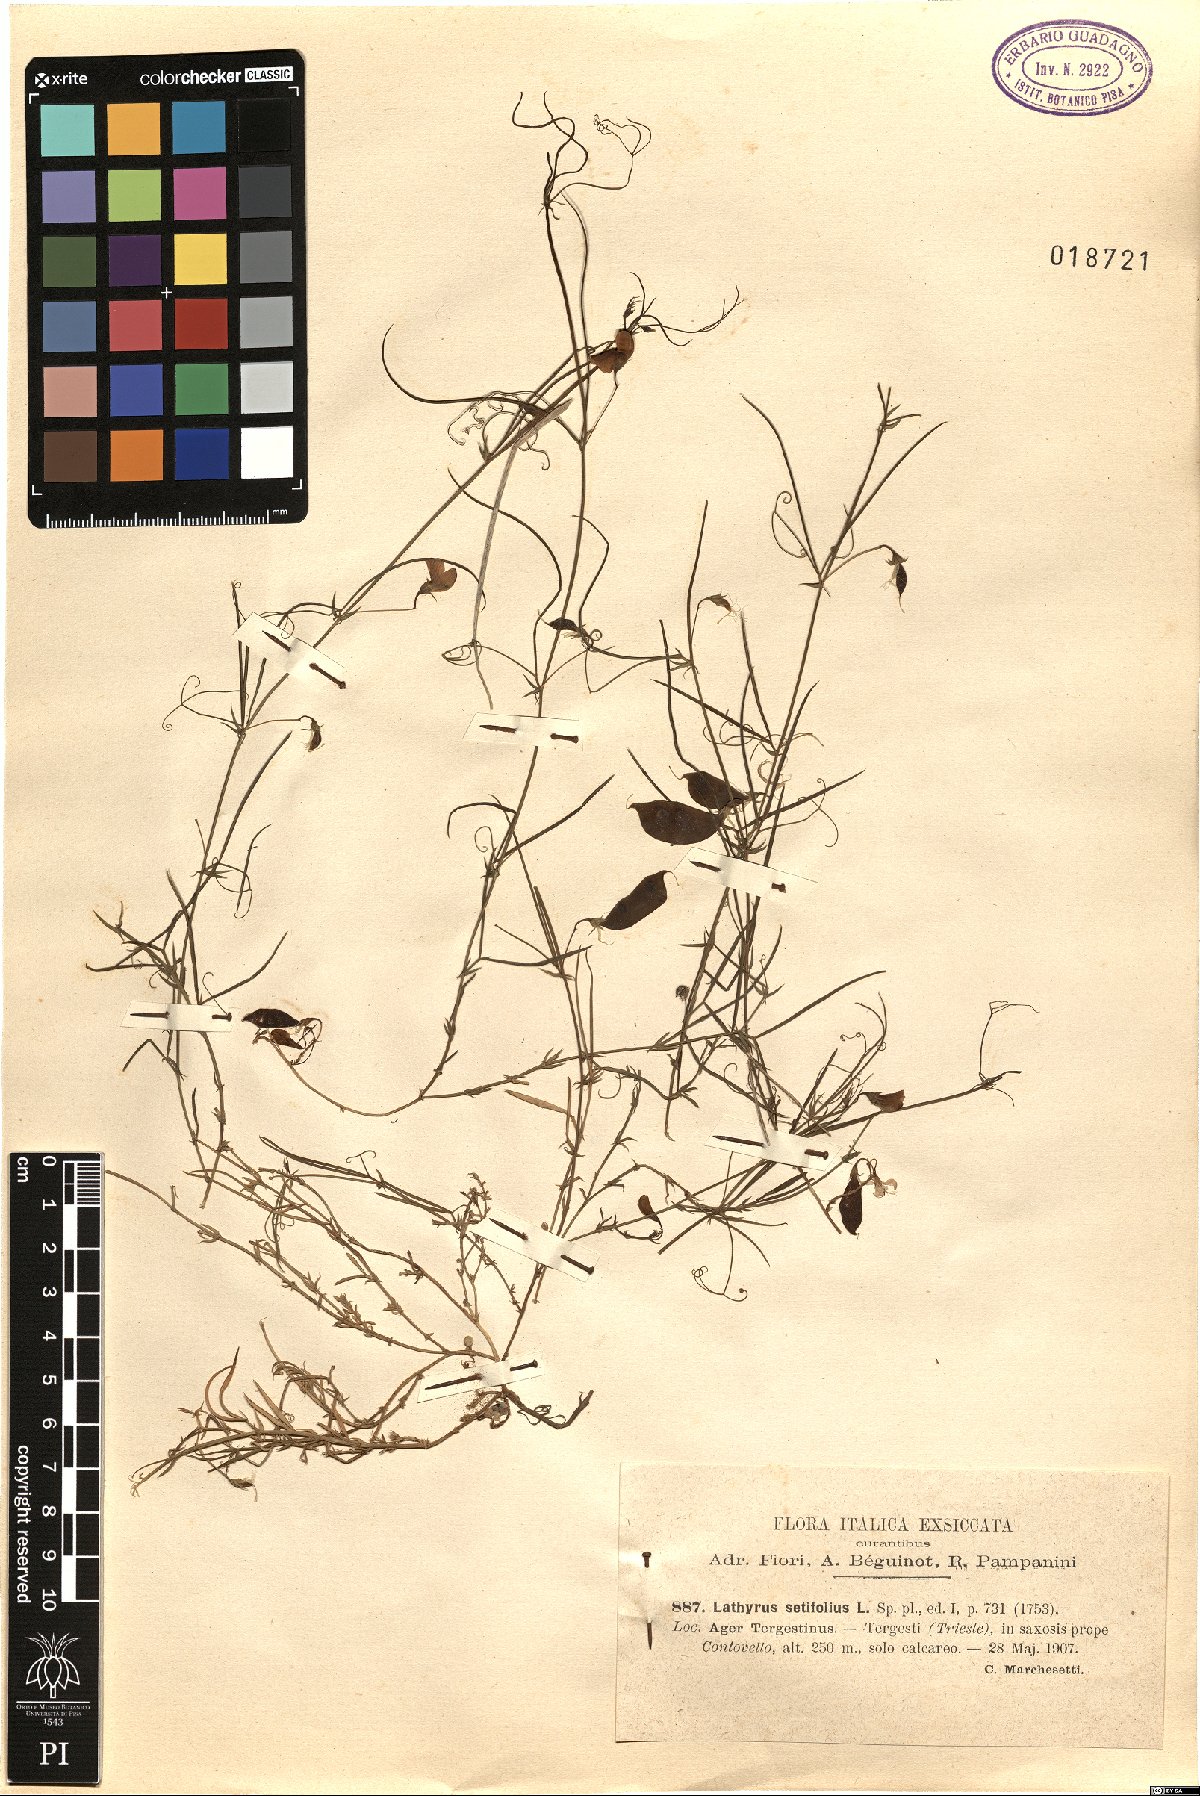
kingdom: Plantae
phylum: Tracheophyta
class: Magnoliopsida
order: Fabales
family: Fabaceae
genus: Lathyrus
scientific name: Lathyrus setifolius
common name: Brown vetchling
